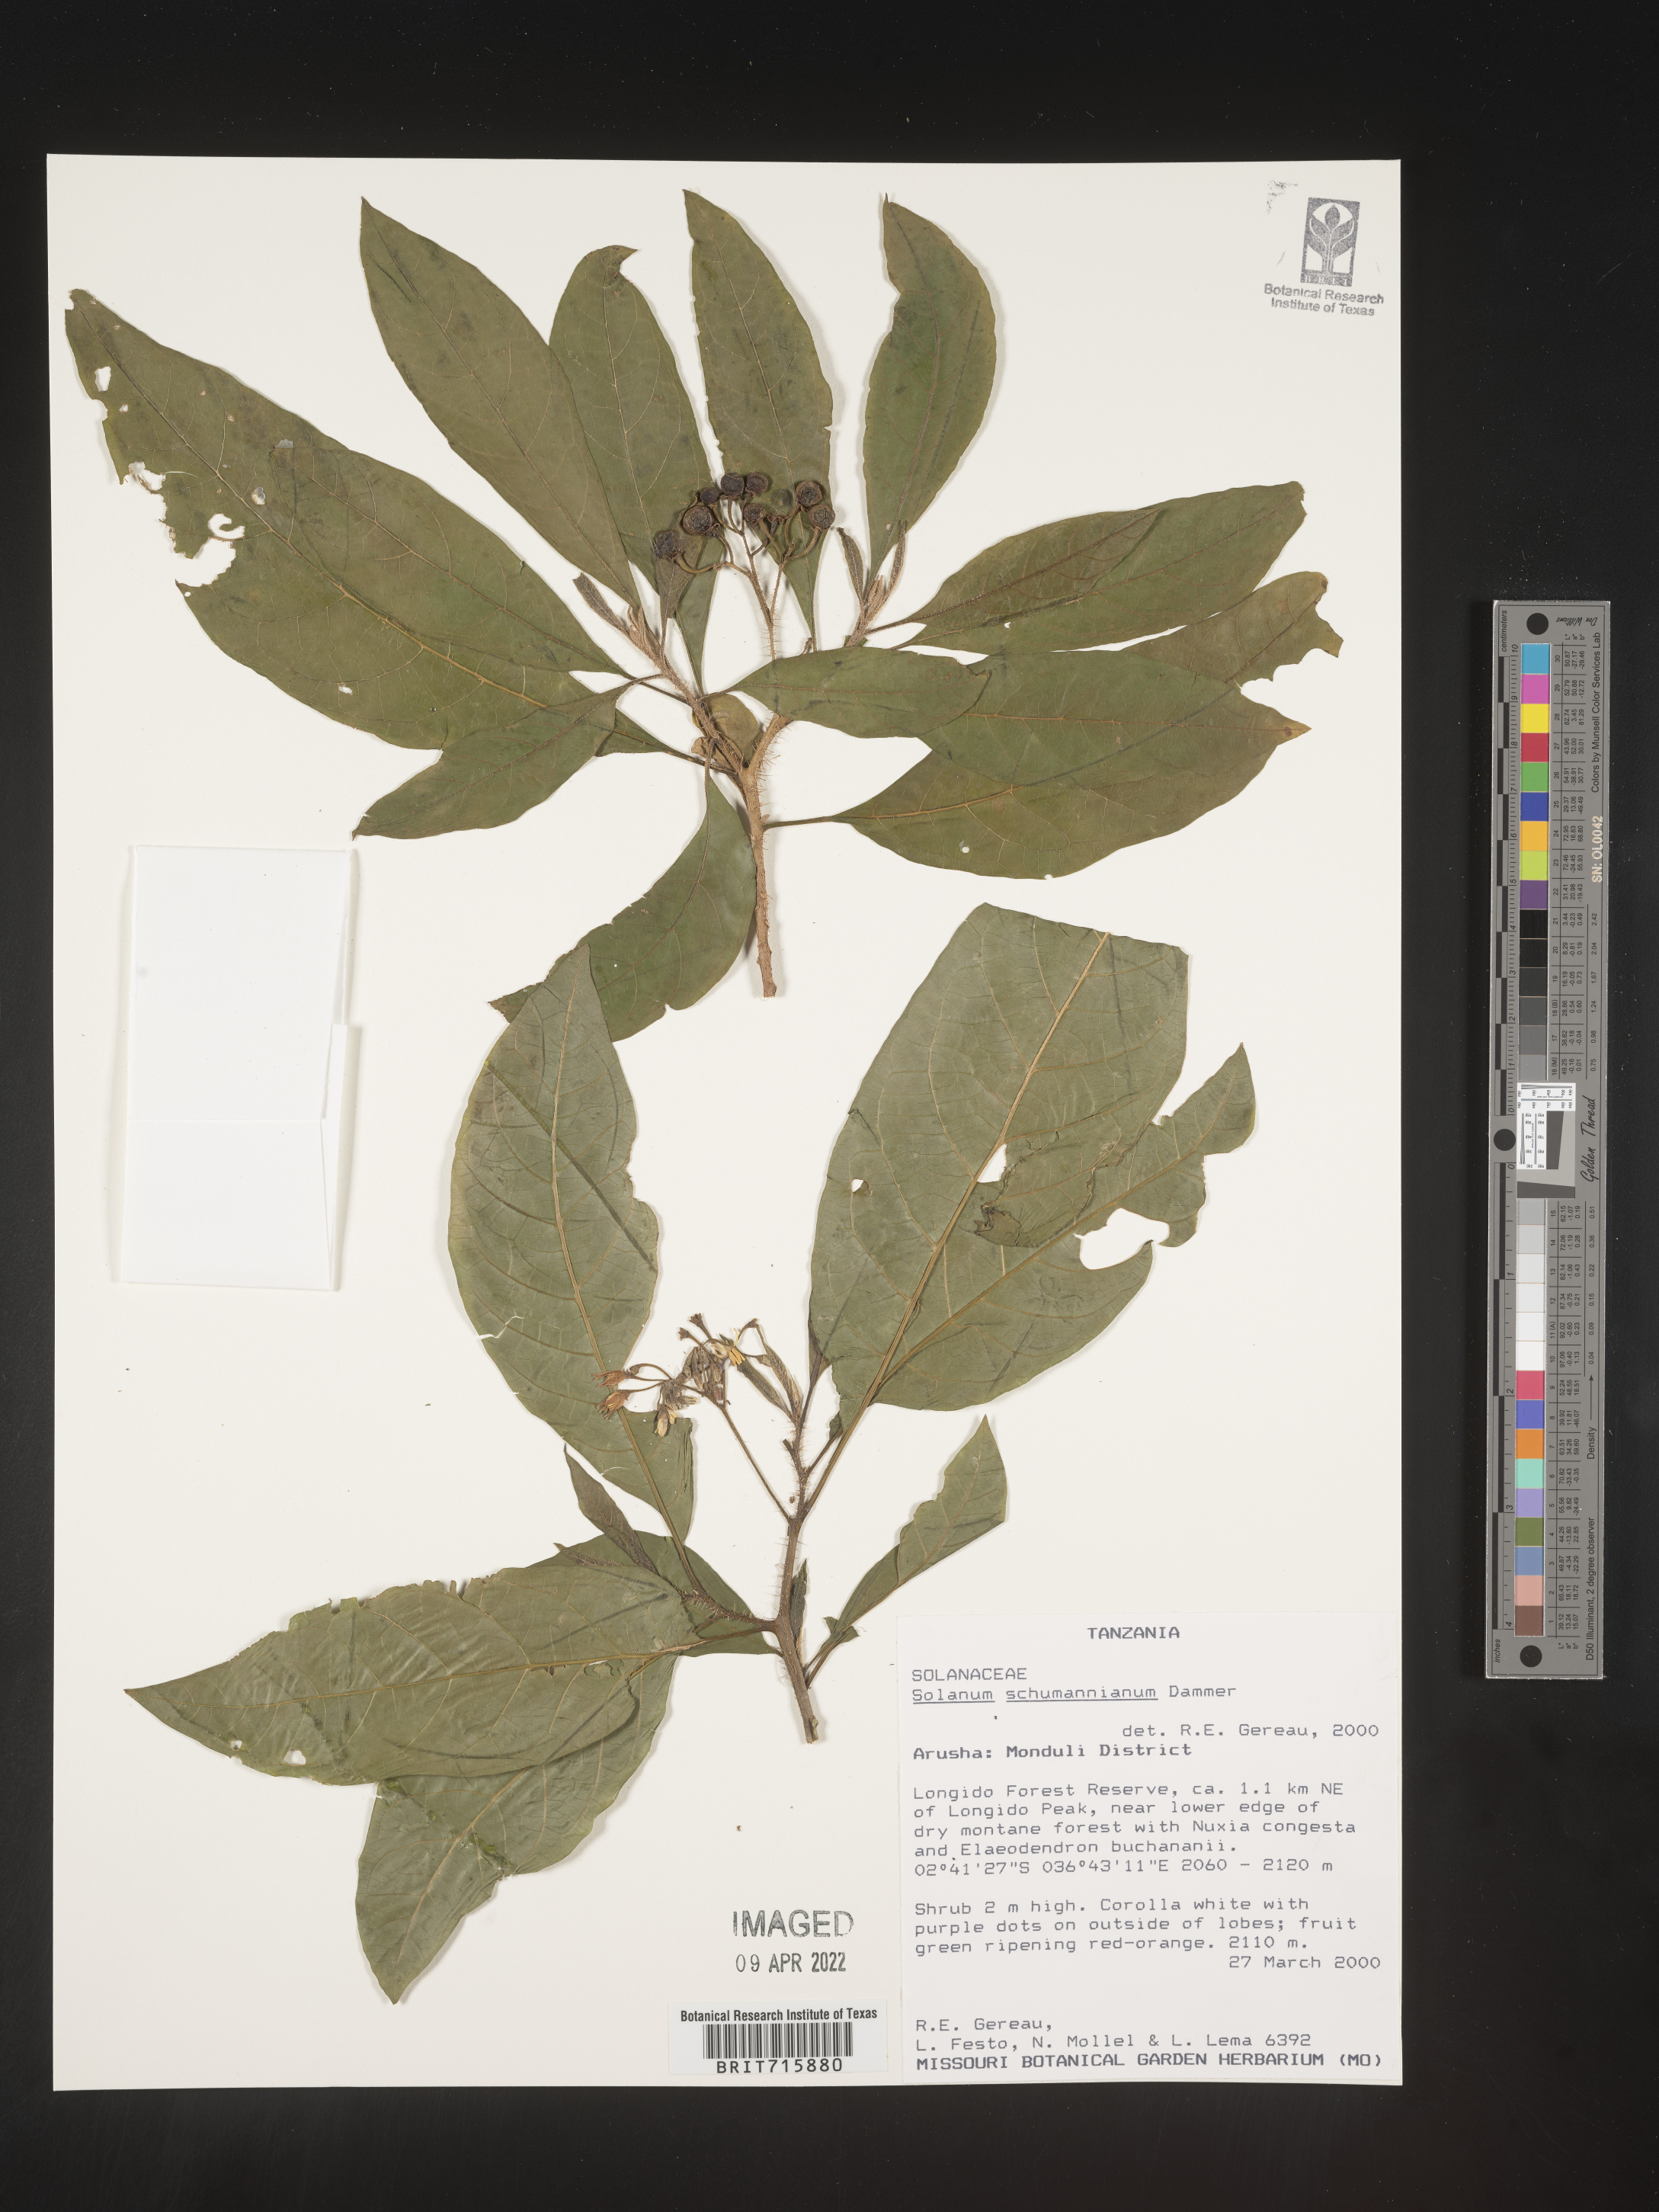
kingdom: Plantae
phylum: Tracheophyta
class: Magnoliopsida
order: Solanales
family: Solanaceae
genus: Solanum
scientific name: Solanum
